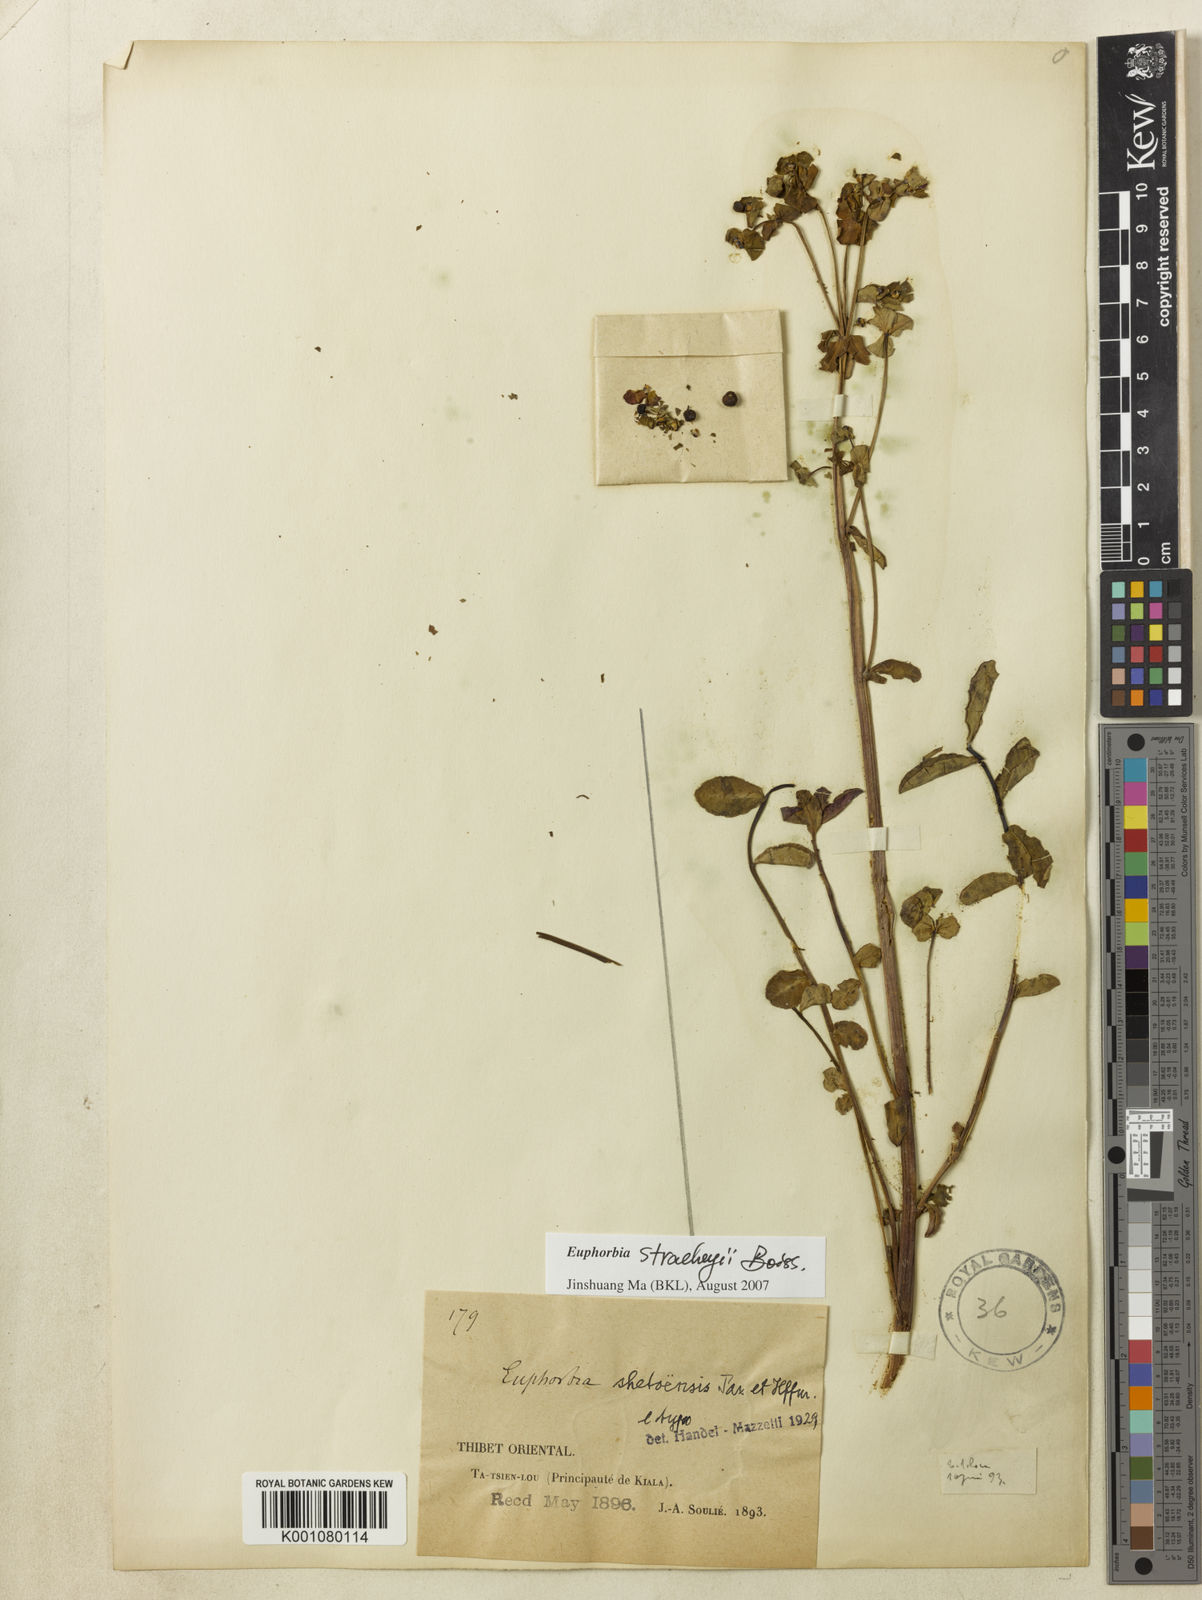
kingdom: Plantae
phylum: Tracheophyta
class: Magnoliopsida
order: Malpighiales
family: Euphorbiaceae
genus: Euphorbia
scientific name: Euphorbia stracheyi
